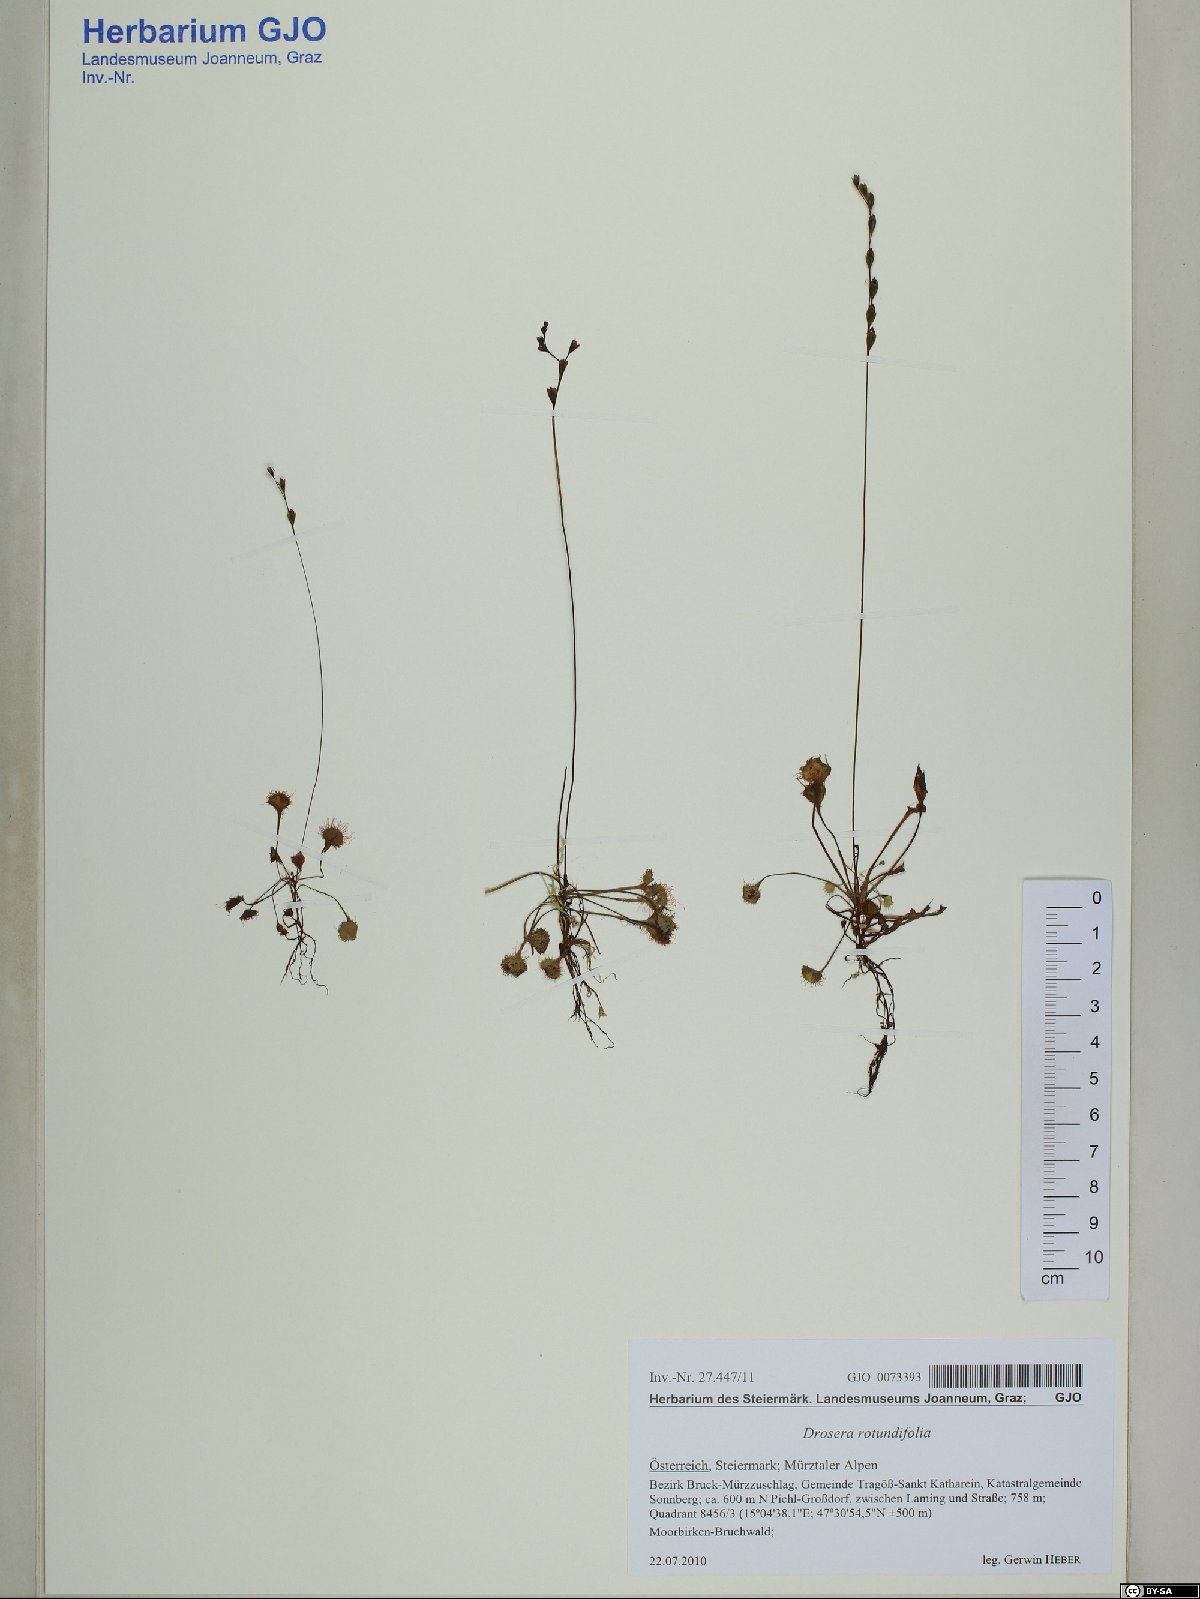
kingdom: Plantae
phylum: Tracheophyta
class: Magnoliopsida
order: Caryophyllales
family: Droseraceae
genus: Drosera
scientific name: Drosera rotundifolia
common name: Round-leaved sundew
